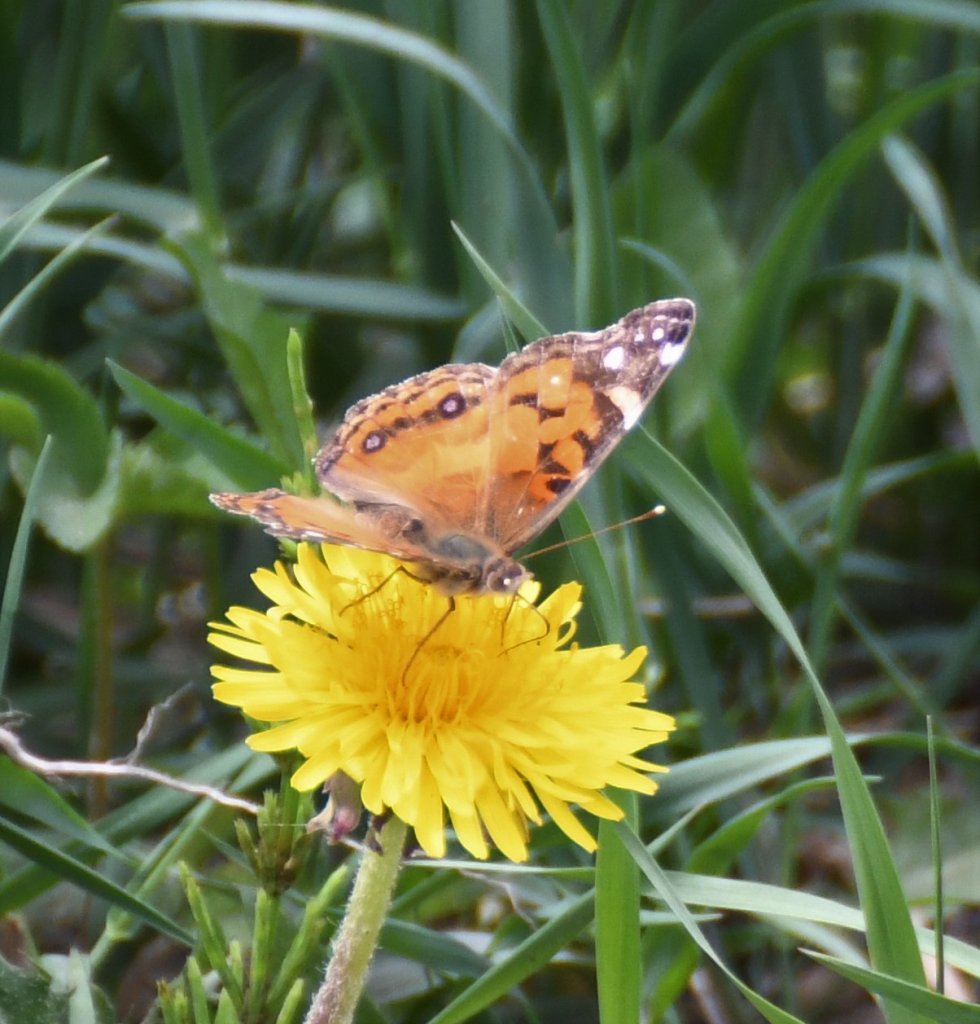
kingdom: Animalia
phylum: Arthropoda
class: Insecta
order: Lepidoptera
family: Nymphalidae
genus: Vanessa
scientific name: Vanessa virginiensis
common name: American Lady
